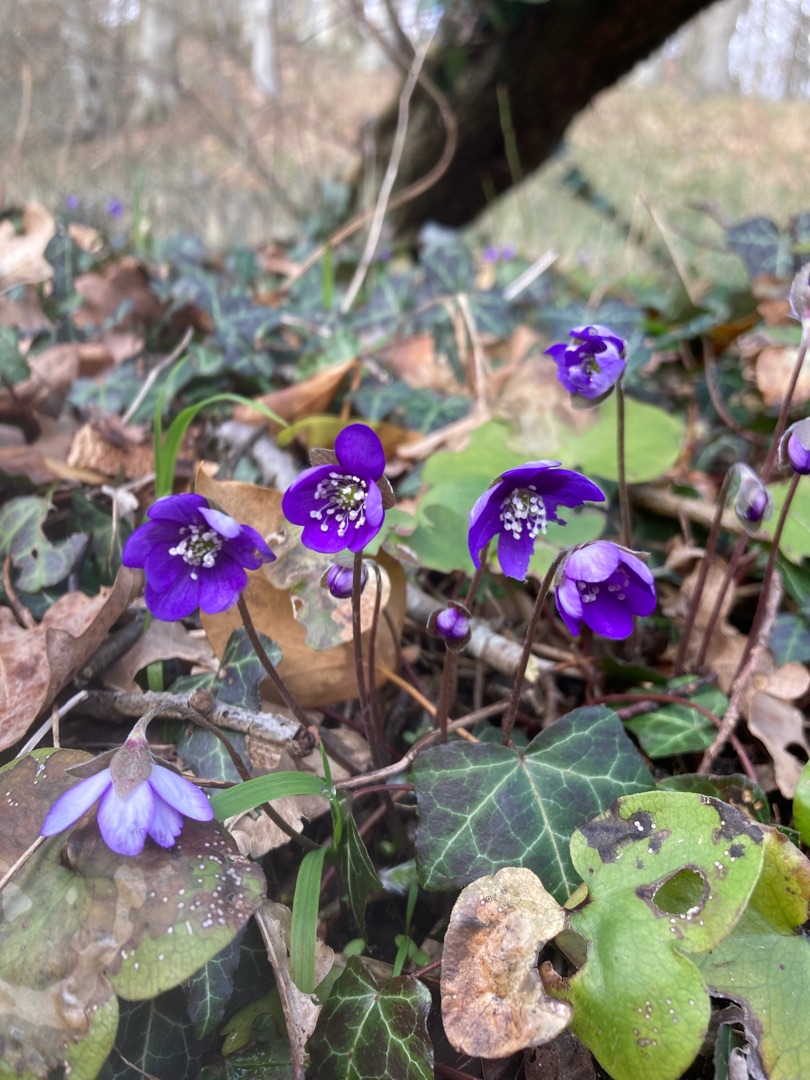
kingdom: Plantae
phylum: Tracheophyta
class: Magnoliopsida
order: Ranunculales
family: Ranunculaceae
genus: Hepatica
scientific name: Hepatica nobilis
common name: Blå anemone
